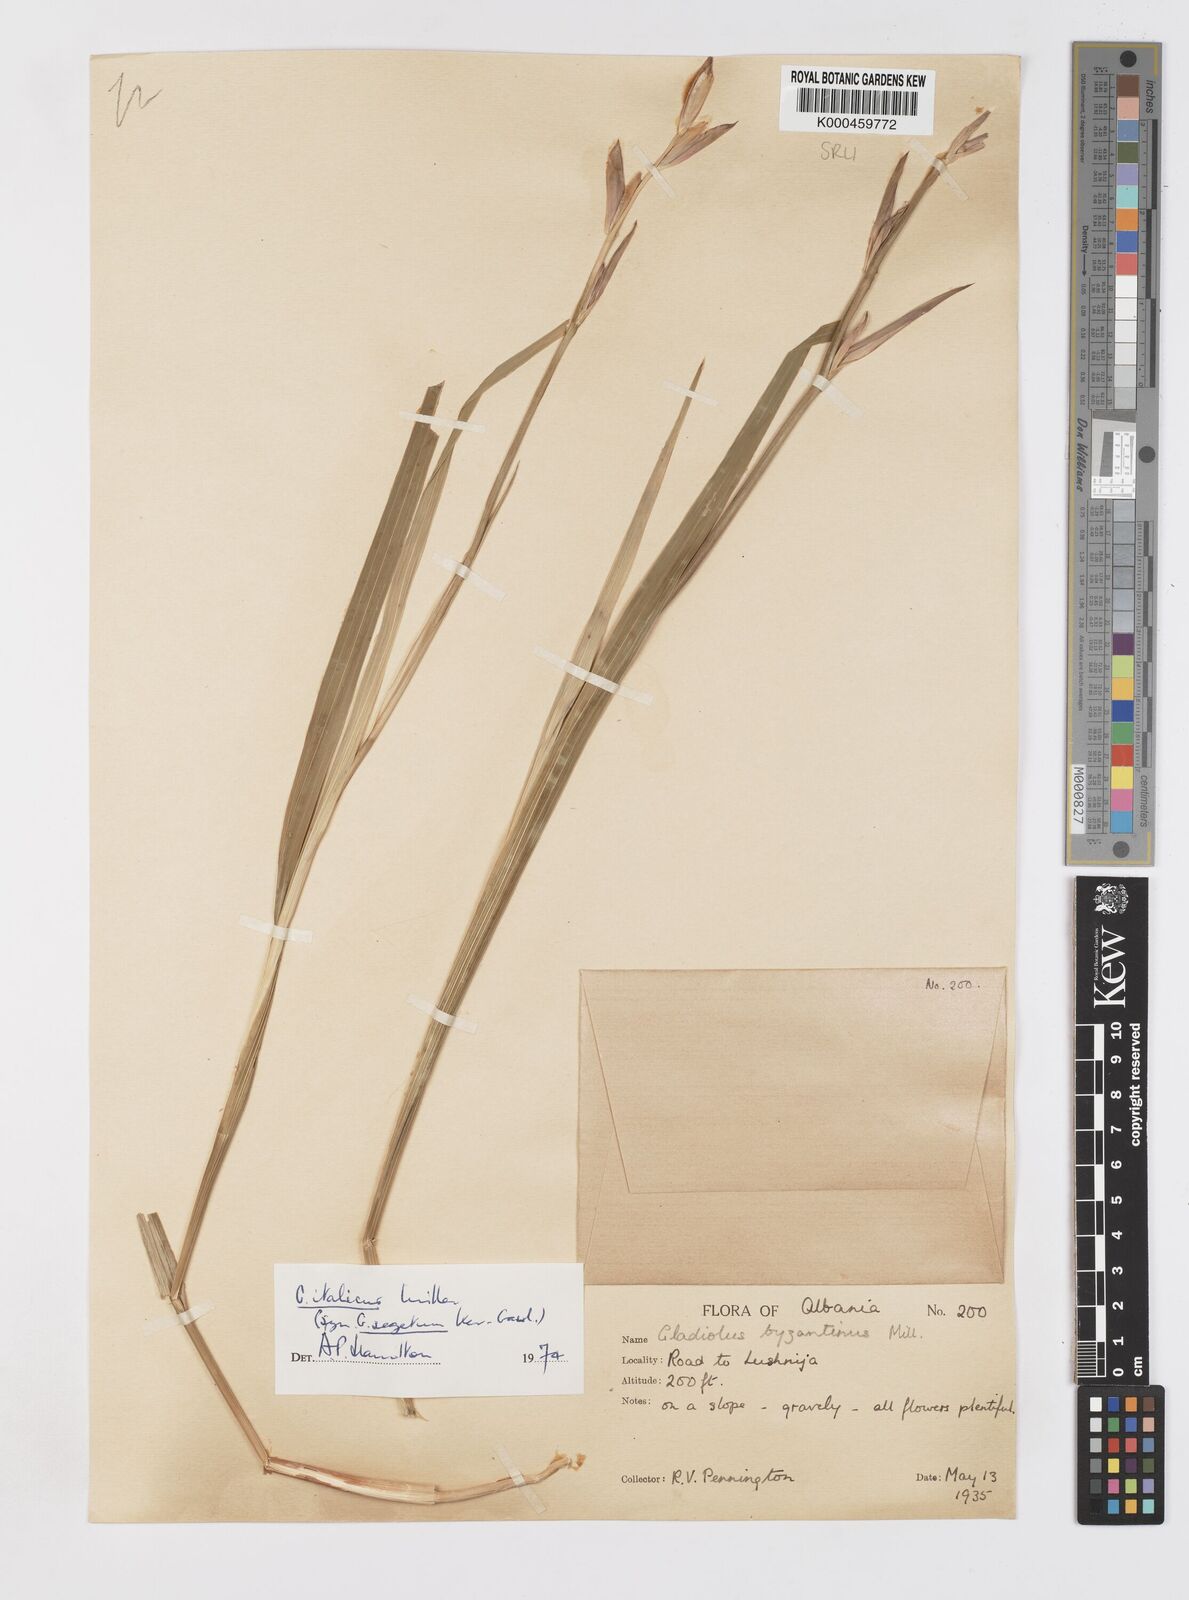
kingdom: Plantae
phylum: Tracheophyta
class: Liliopsida
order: Asparagales
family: Iridaceae
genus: Gladiolus
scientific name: Gladiolus italicus
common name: Field gladiolus
